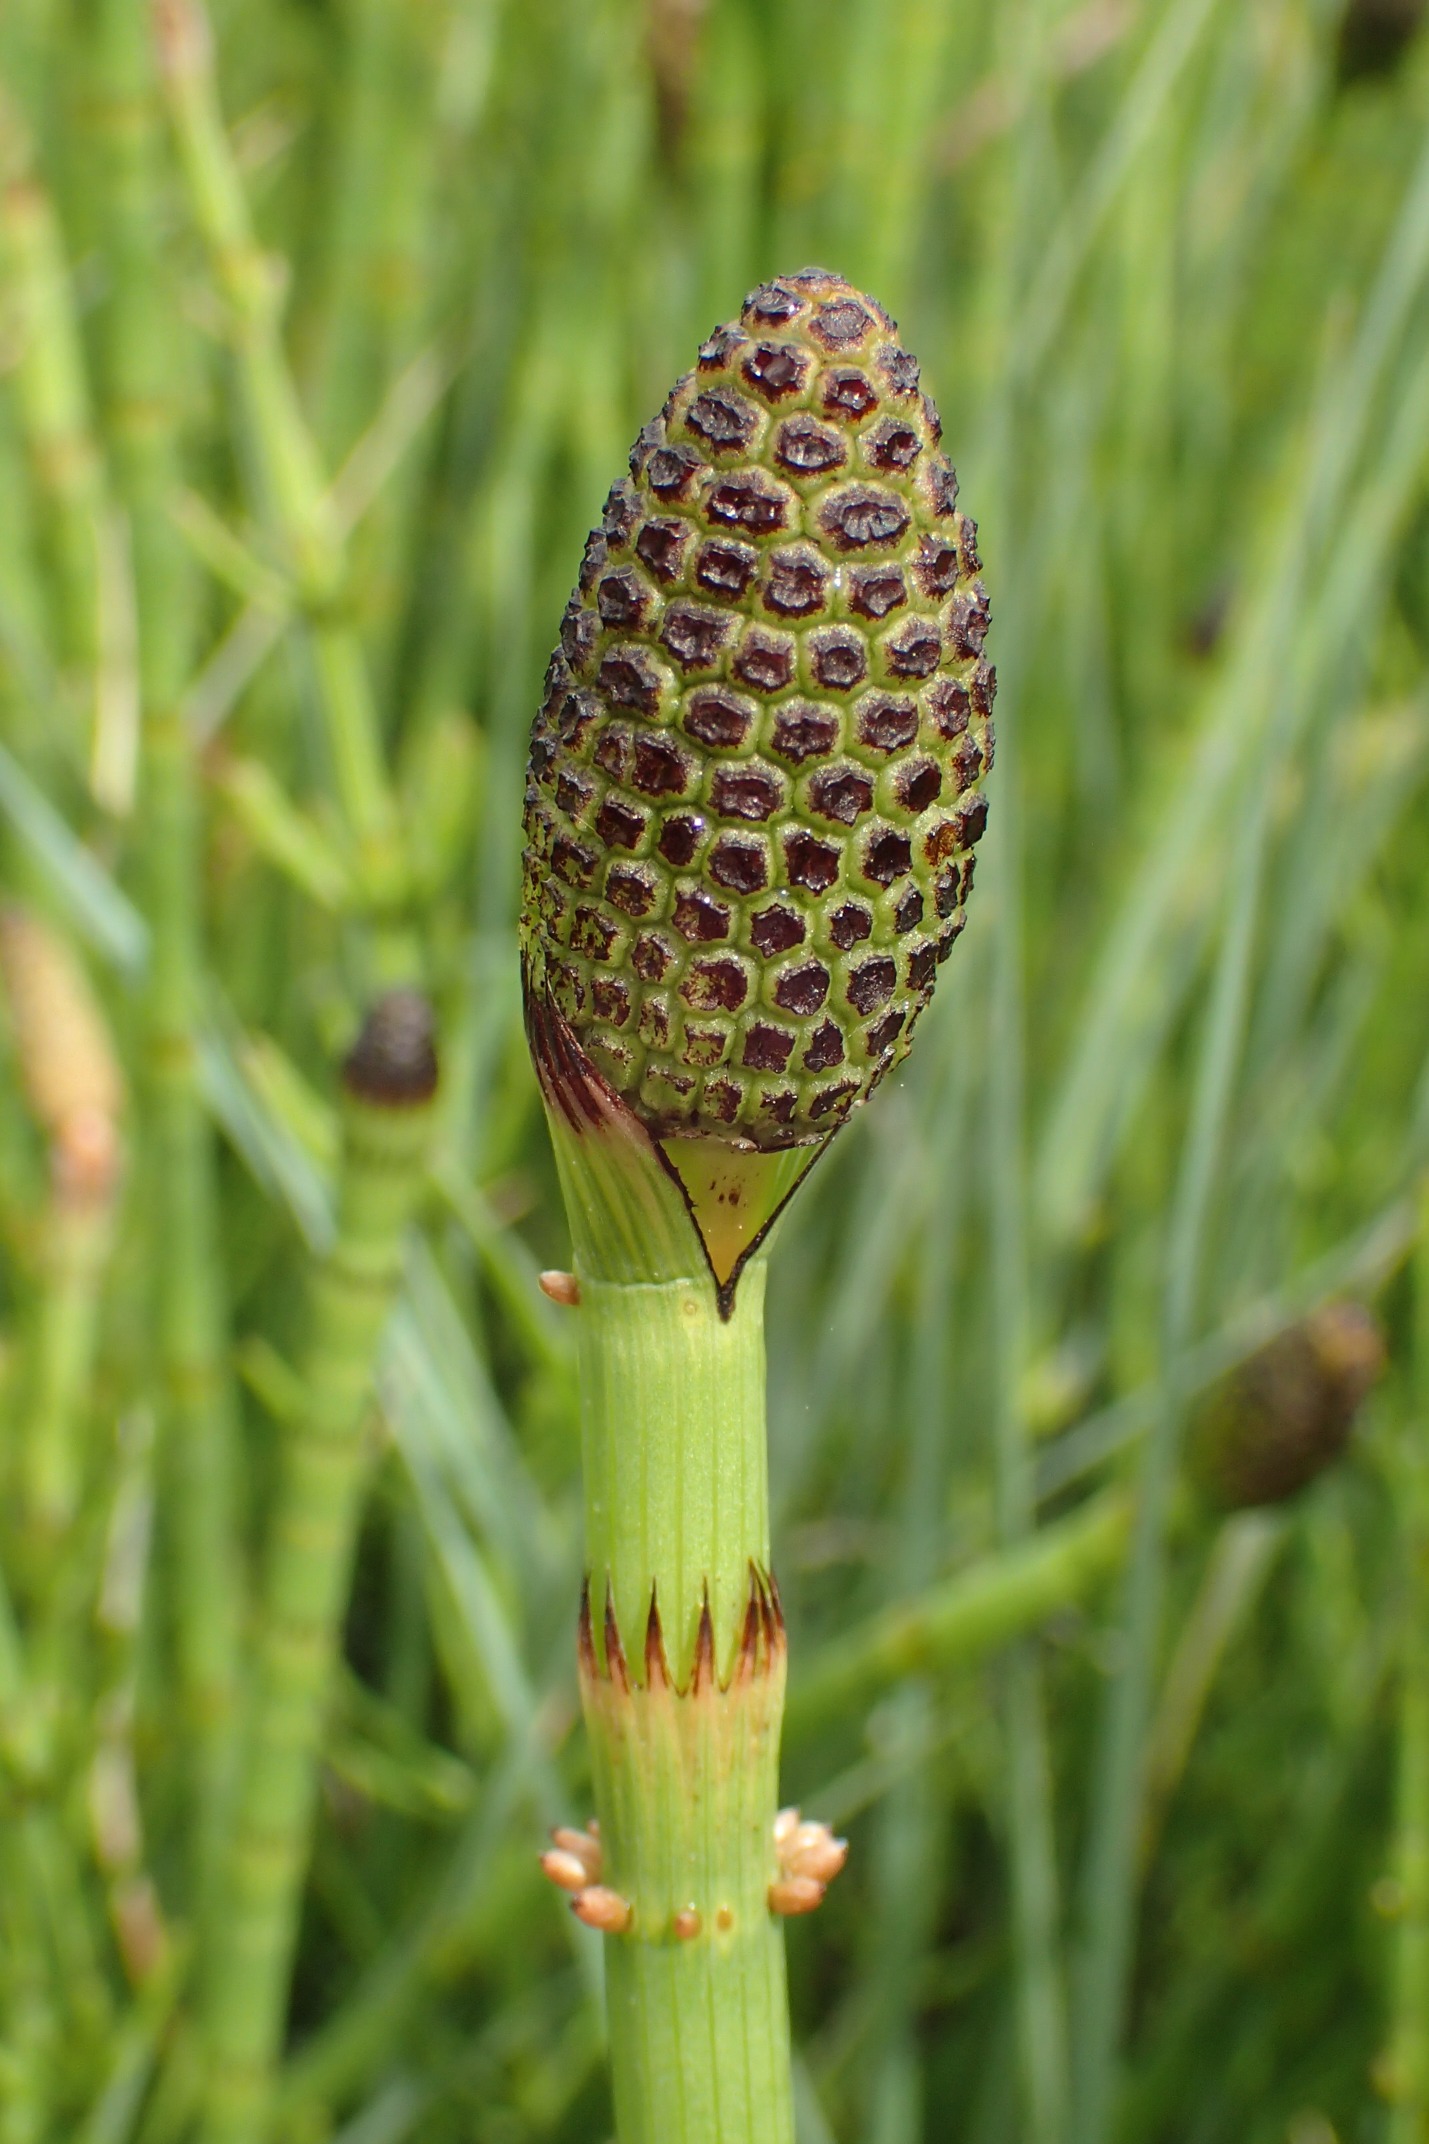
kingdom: Plantae
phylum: Tracheophyta
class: Polypodiopsida
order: Equisetales
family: Equisetaceae
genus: Equisetum
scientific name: Equisetum fluviatile
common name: Dynd-padderok
